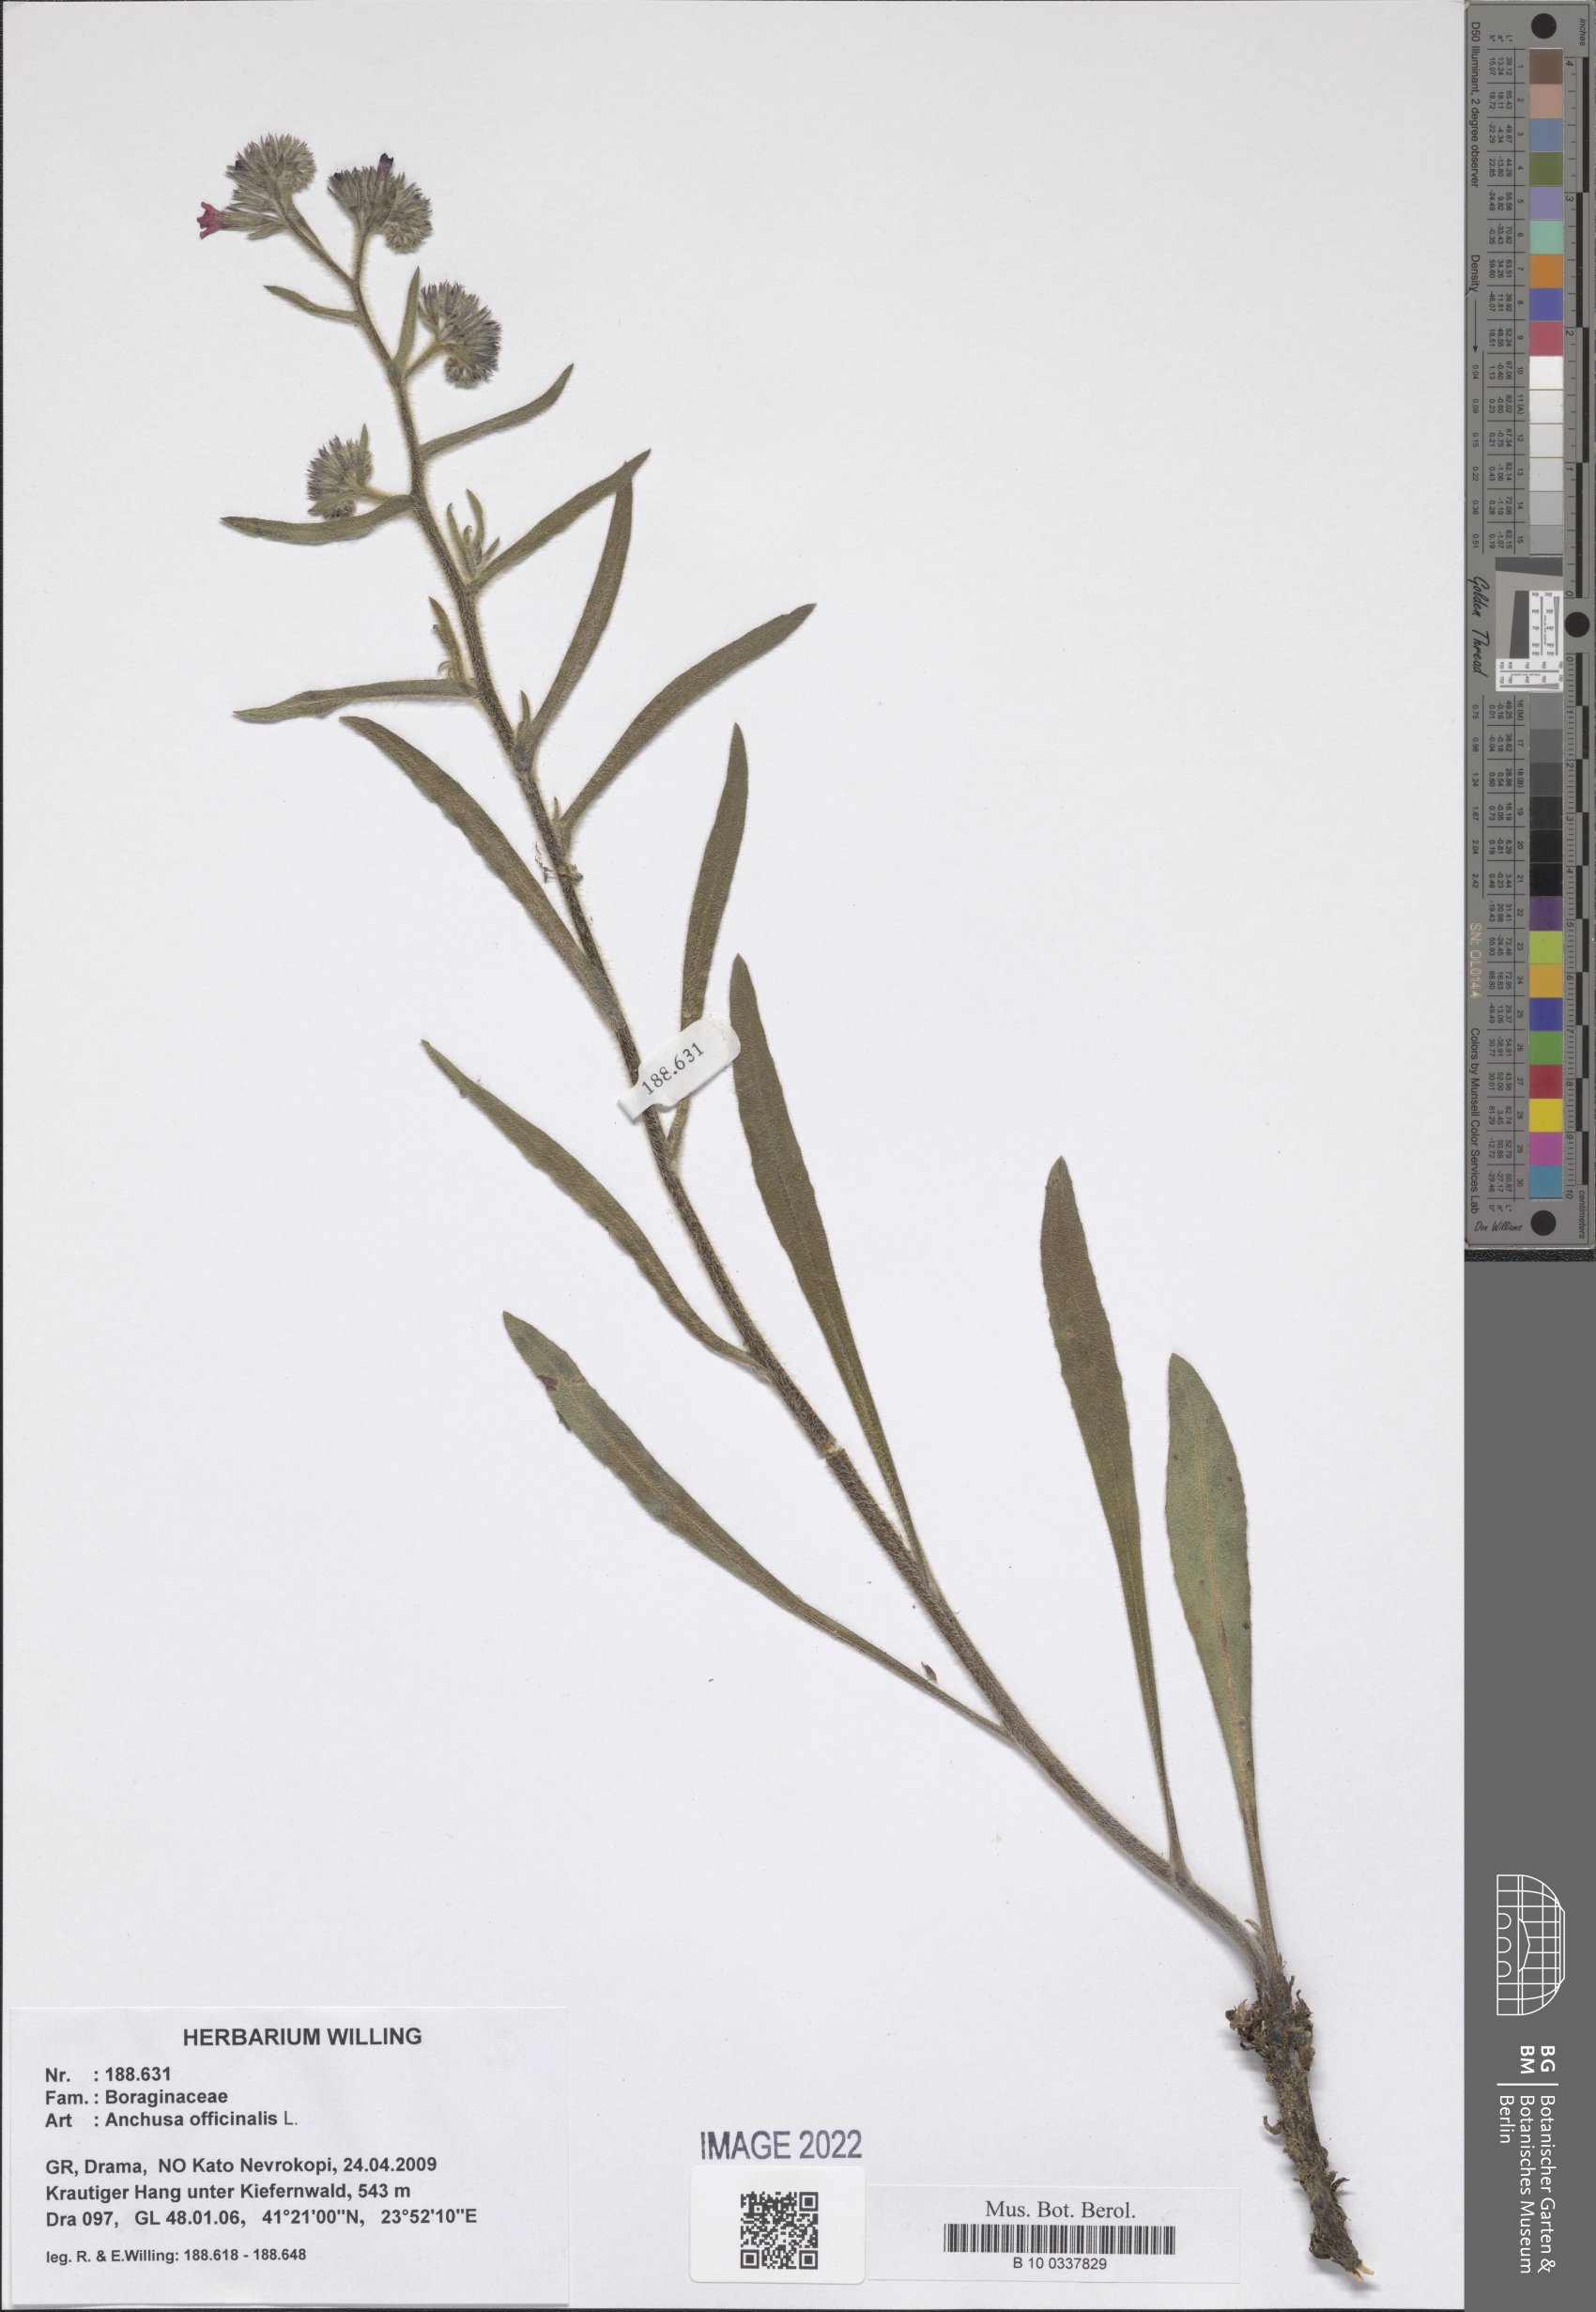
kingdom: Plantae
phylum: Tracheophyta
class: Magnoliopsida
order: Boraginales
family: Boraginaceae
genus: Anchusa
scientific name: Anchusa officinalis
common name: Alkanet
